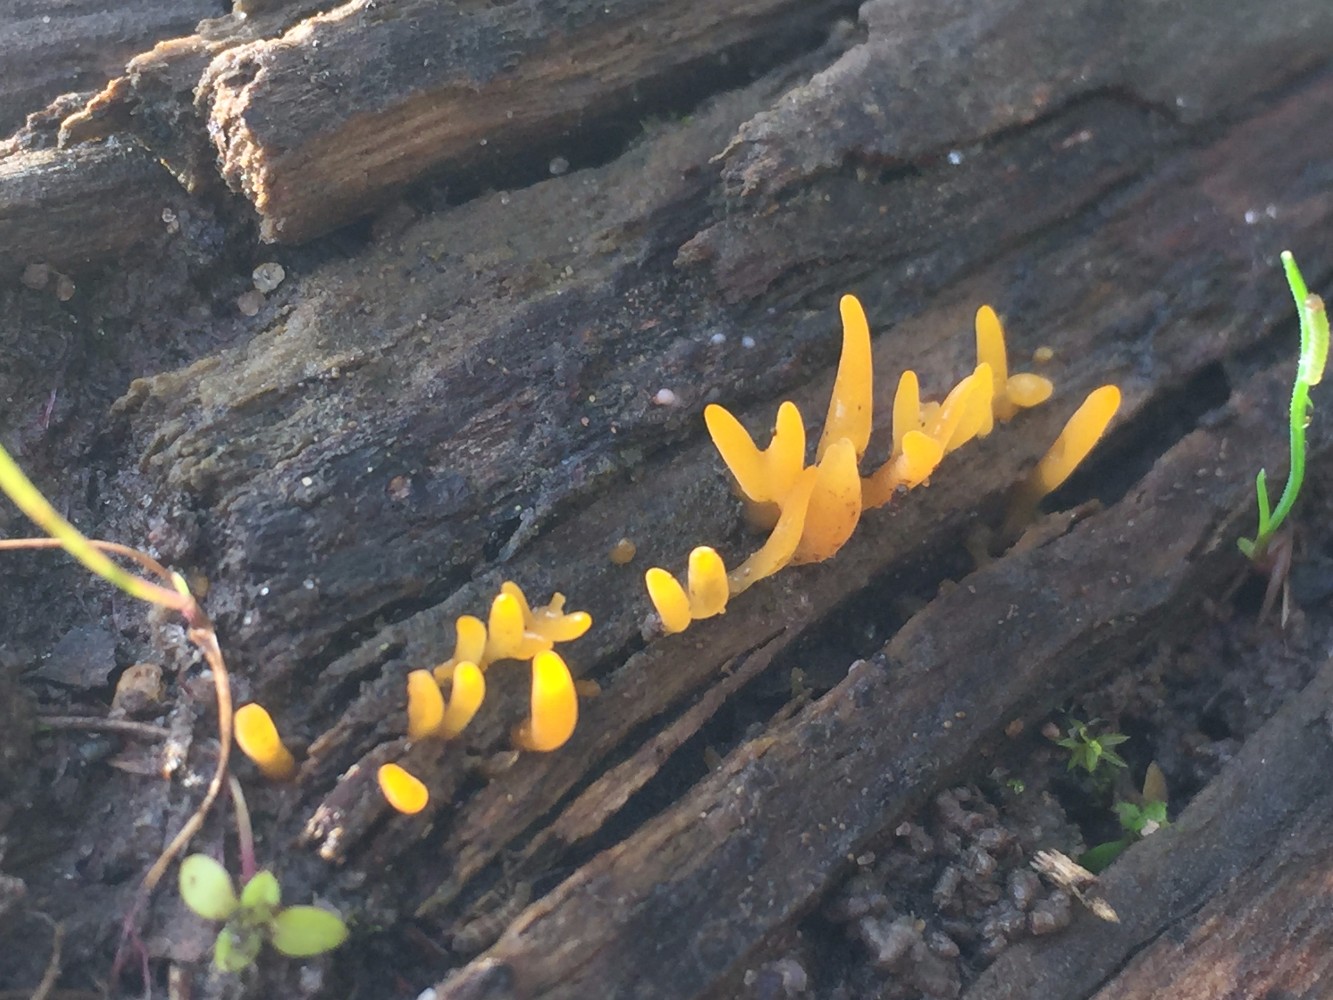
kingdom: Fungi
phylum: Basidiomycota
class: Dacrymycetes
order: Dacrymycetales
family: Dacrymycetaceae
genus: Calocera
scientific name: Calocera cornea
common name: liden guldgaffel
